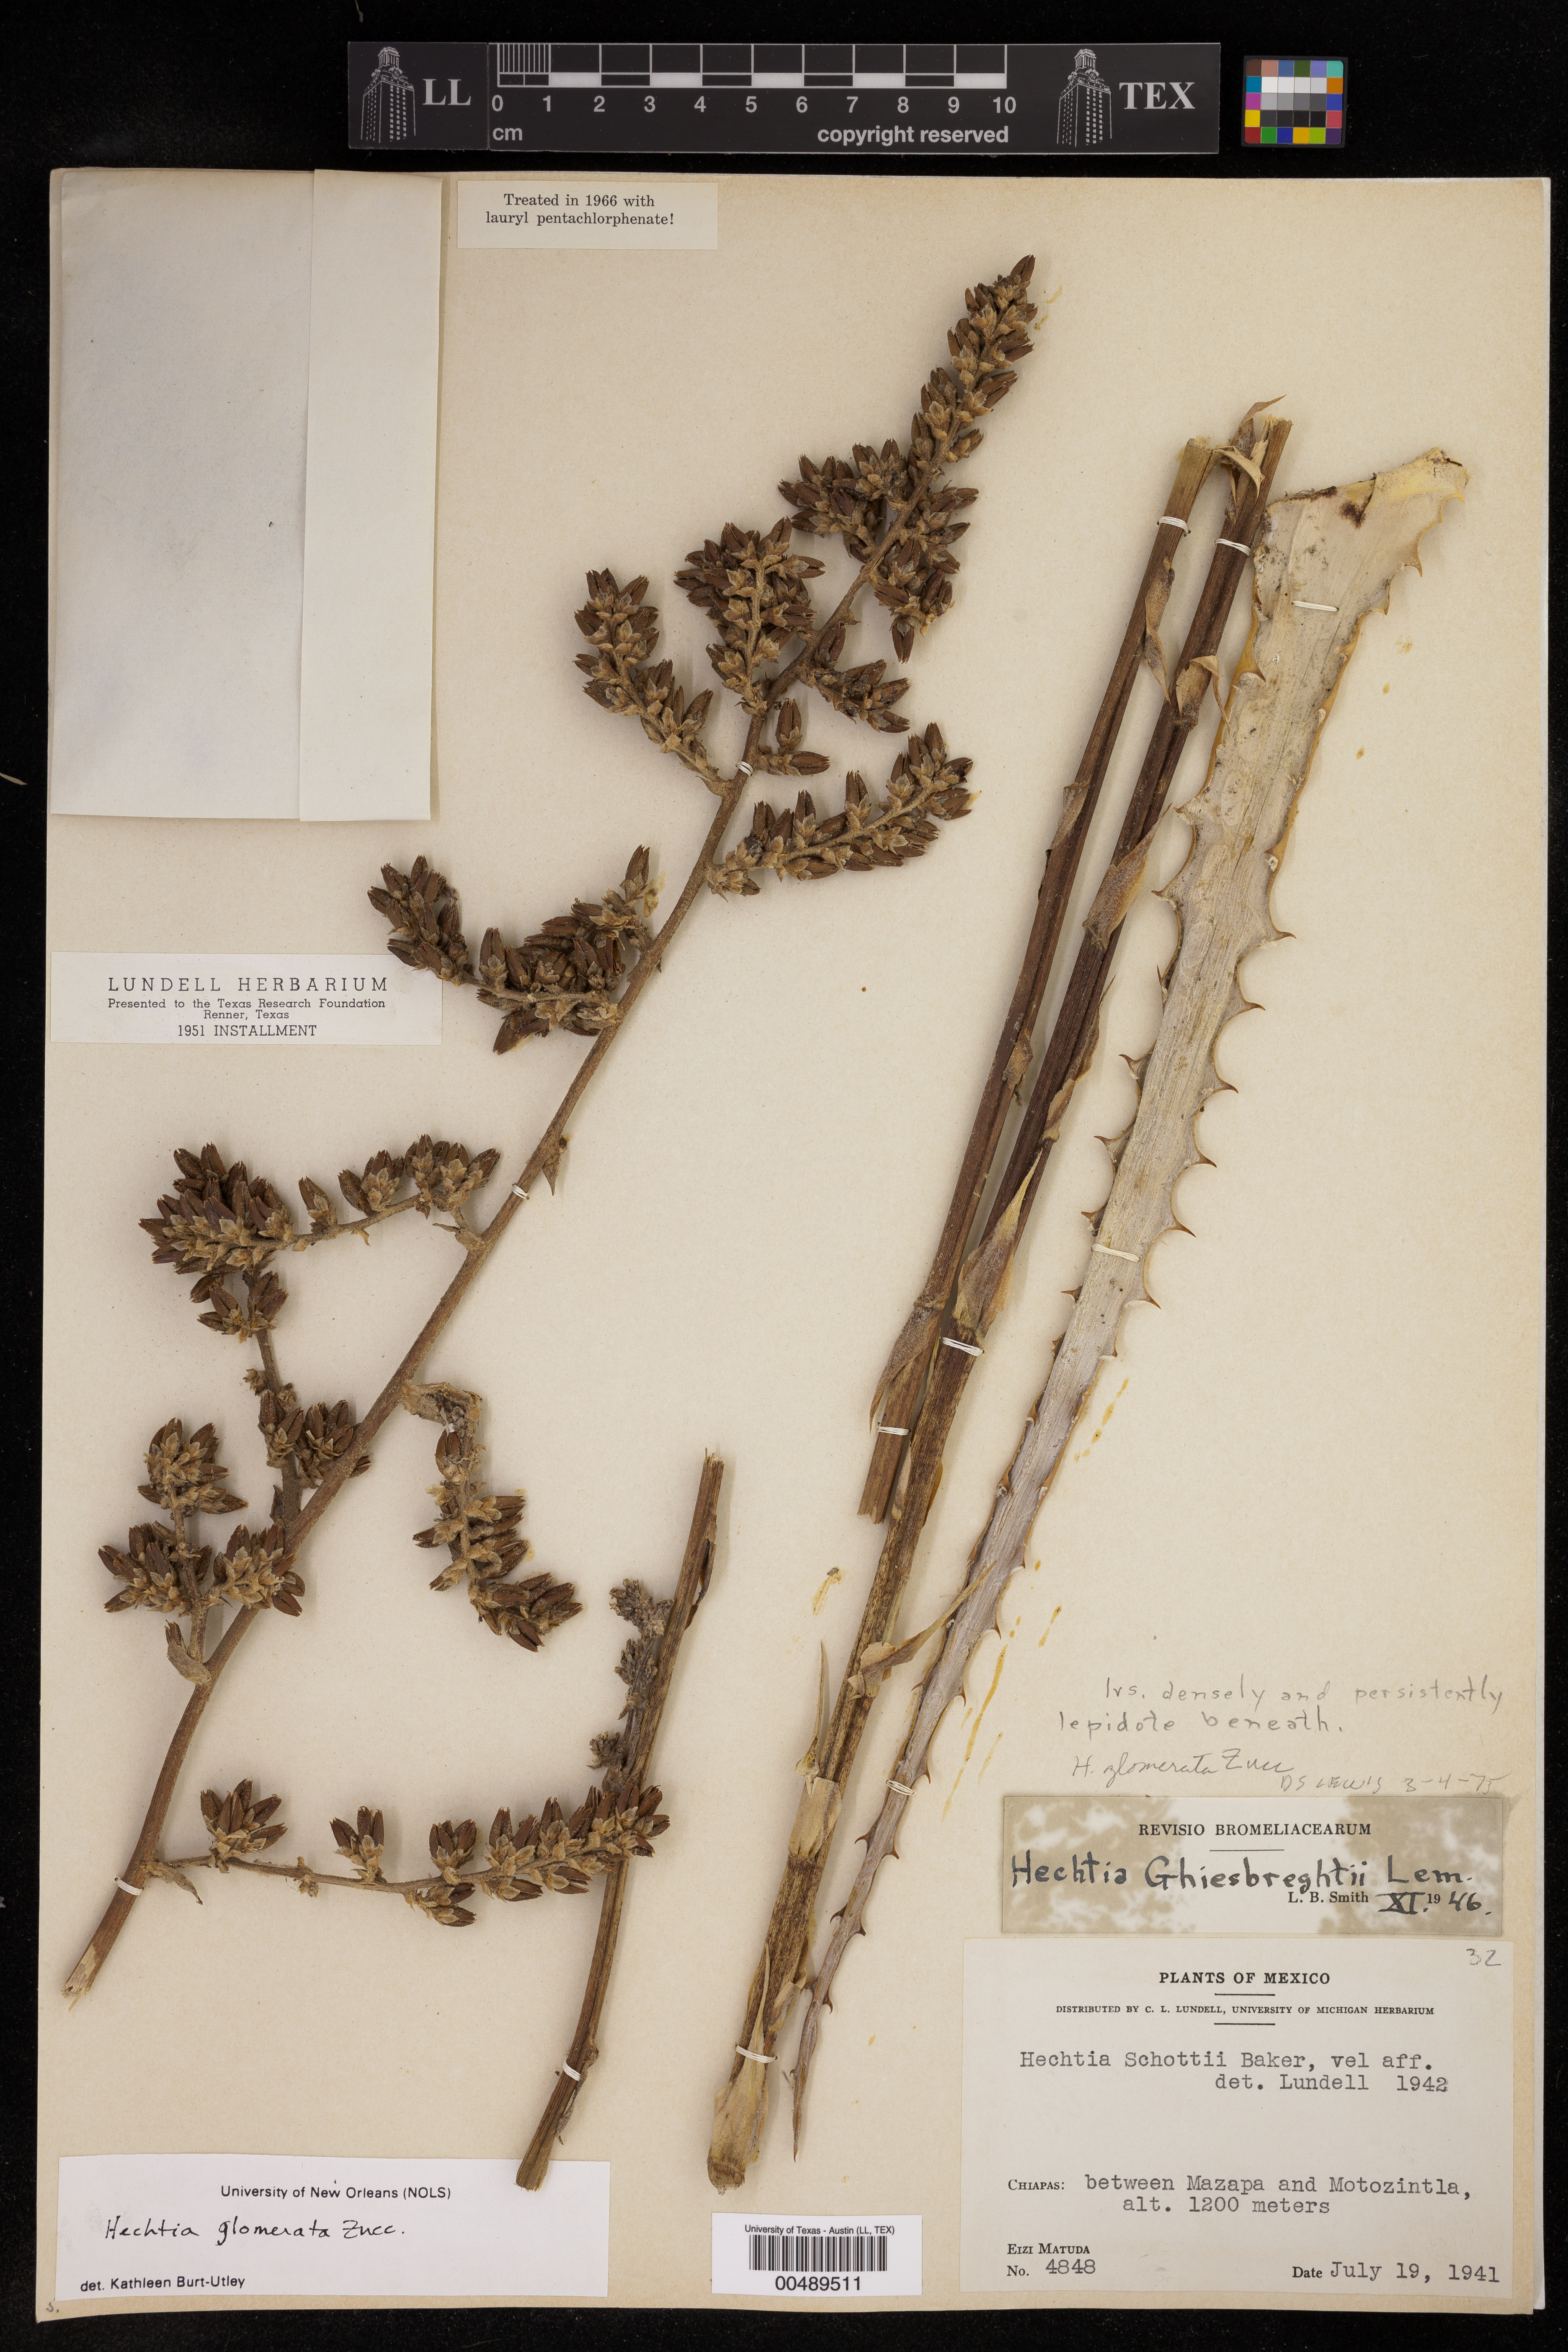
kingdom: Plantae
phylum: Tracheophyta
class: Liliopsida
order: Poales
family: Bromeliaceae
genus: Hechtia
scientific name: Hechtia glomerata
